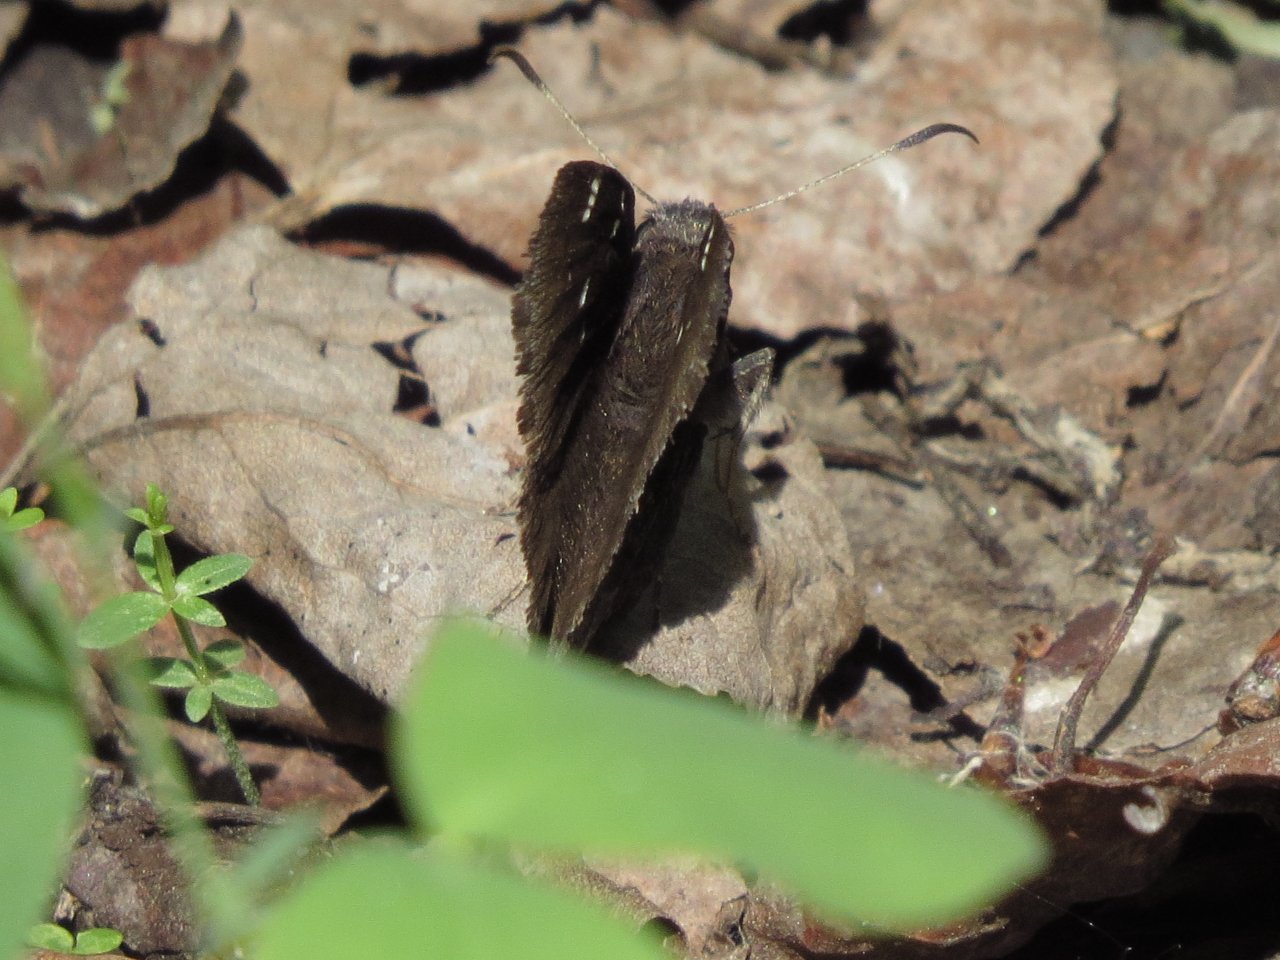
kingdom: Animalia
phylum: Arthropoda
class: Insecta
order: Lepidoptera
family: Hesperiidae
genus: Autochton
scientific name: Autochton
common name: Northern Cloudywing
